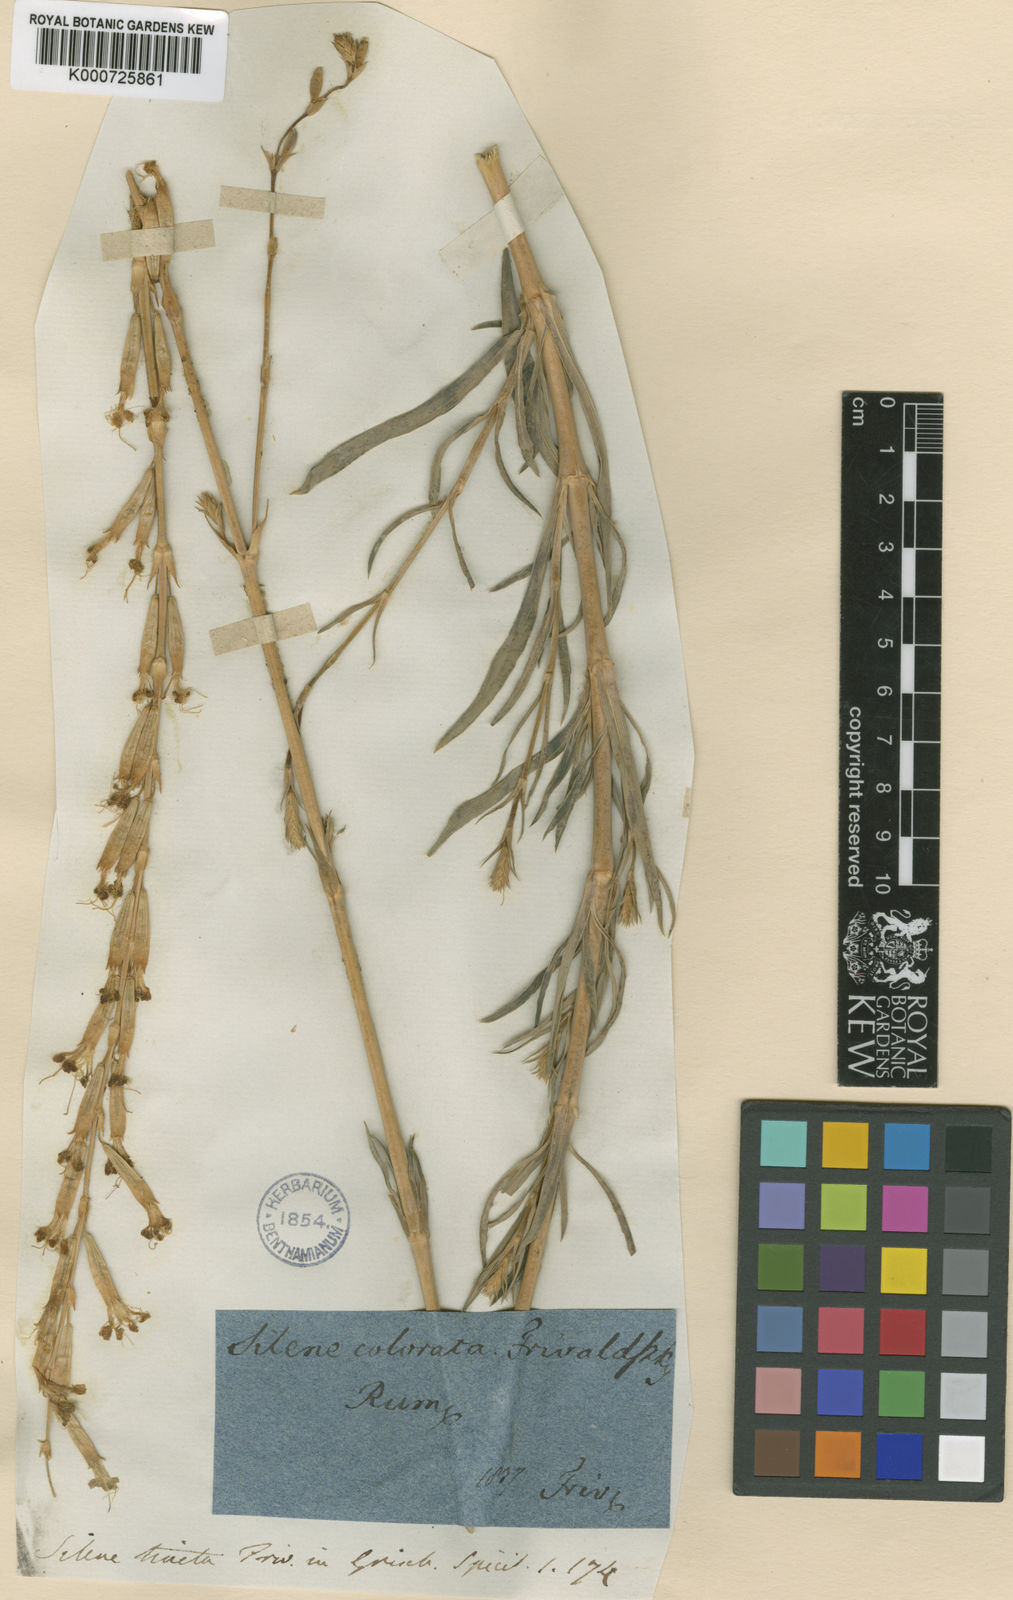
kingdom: Plantae
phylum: Tracheophyta
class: Magnoliopsida
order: Caryophyllales
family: Caryophyllaceae
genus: Silene
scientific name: Silene
